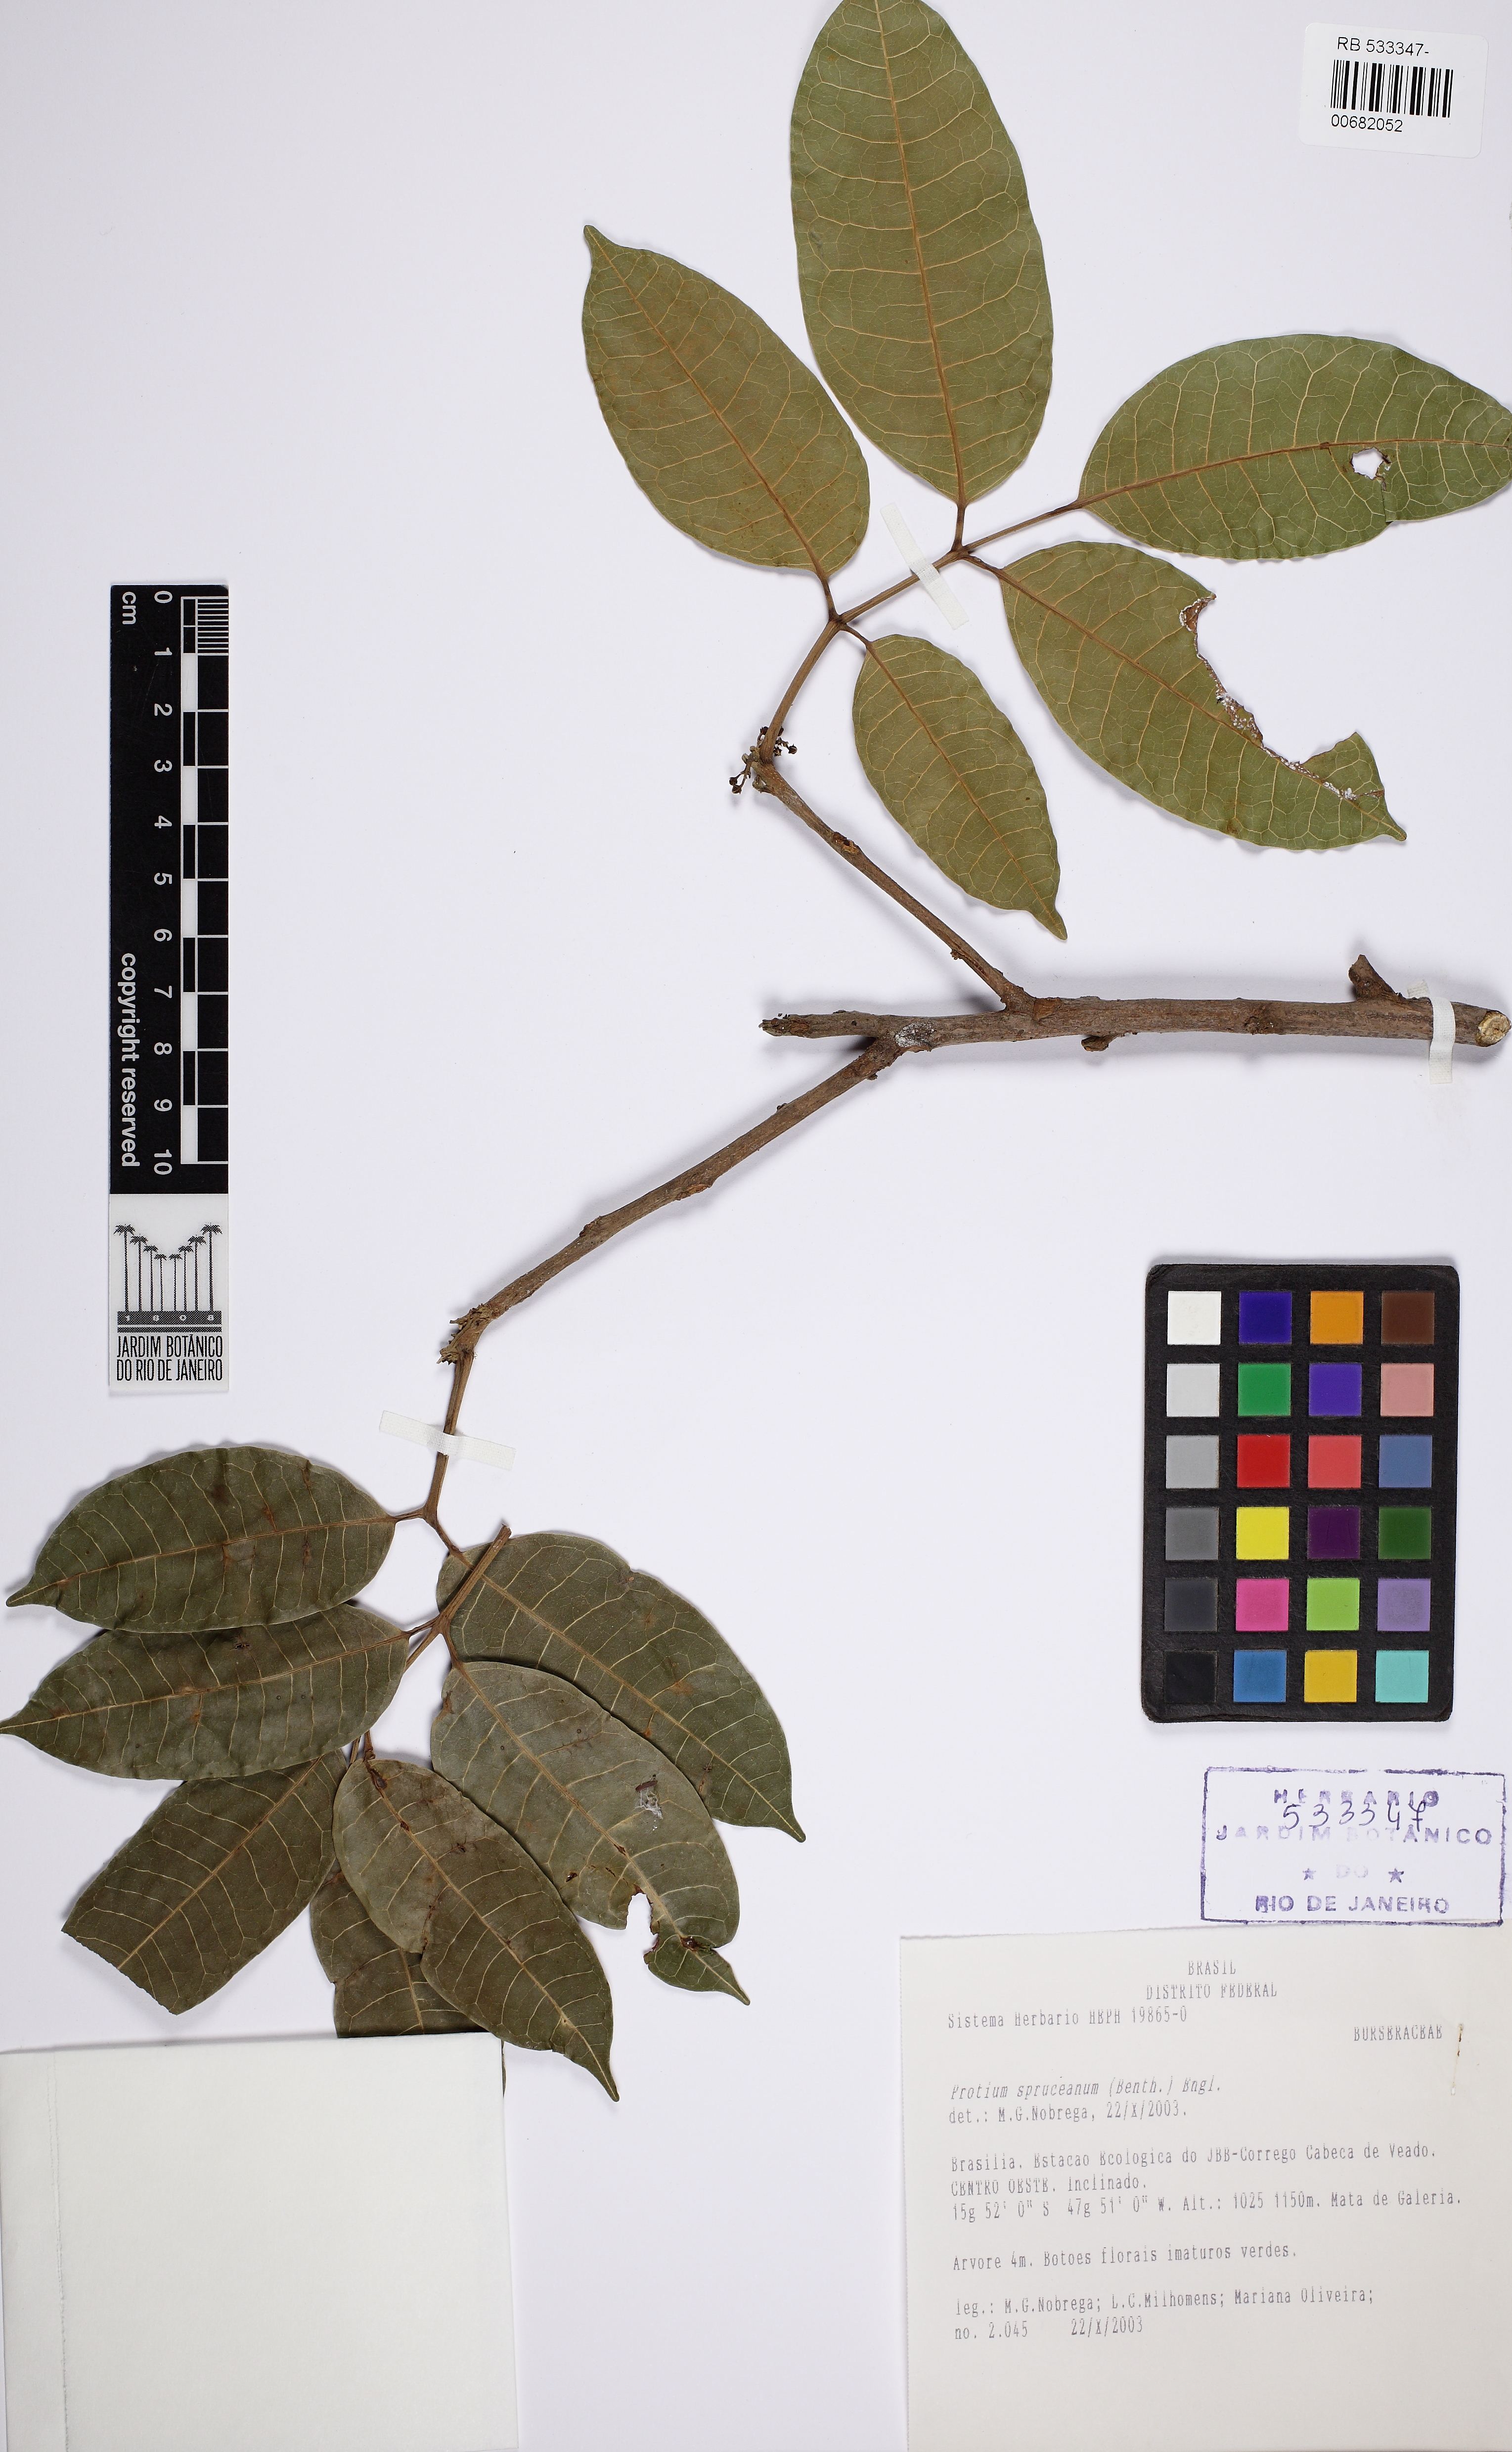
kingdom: Plantae
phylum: Tracheophyta
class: Magnoliopsida
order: Sapindales
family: Burseraceae
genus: Protium
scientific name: Protium spruceanum
